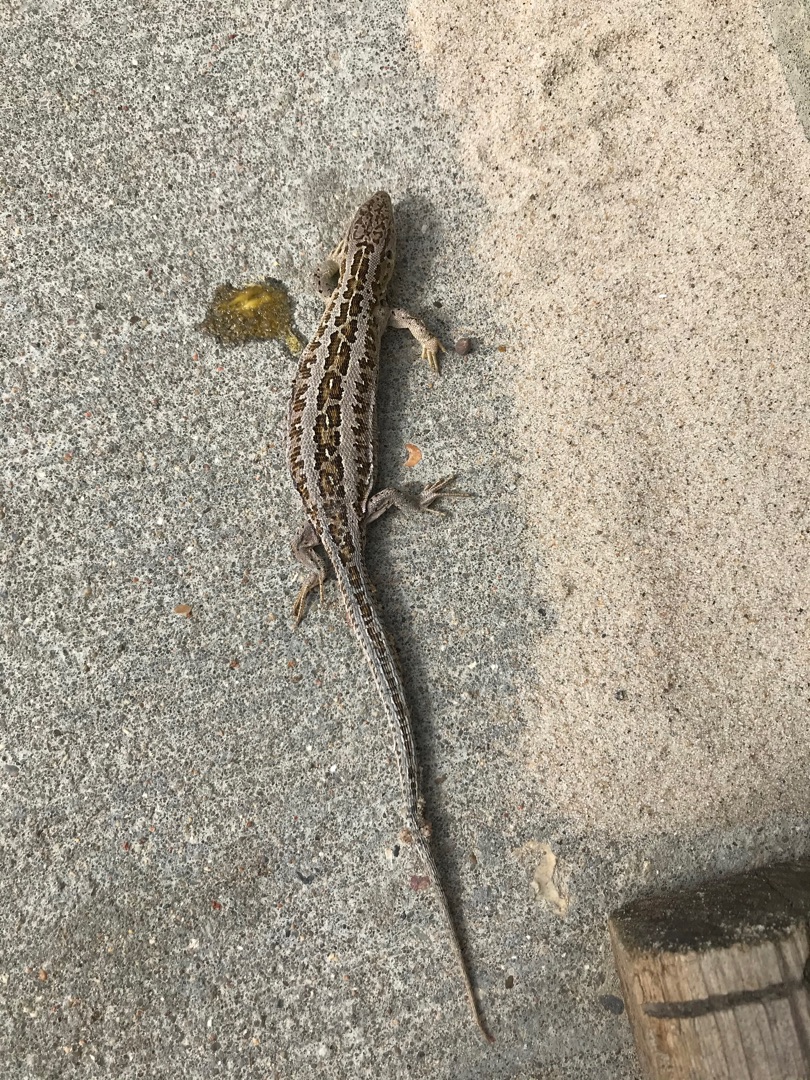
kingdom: Animalia
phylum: Chordata
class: Squamata
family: Lacertidae
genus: Lacerta
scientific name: Lacerta agilis
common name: Markfirben
